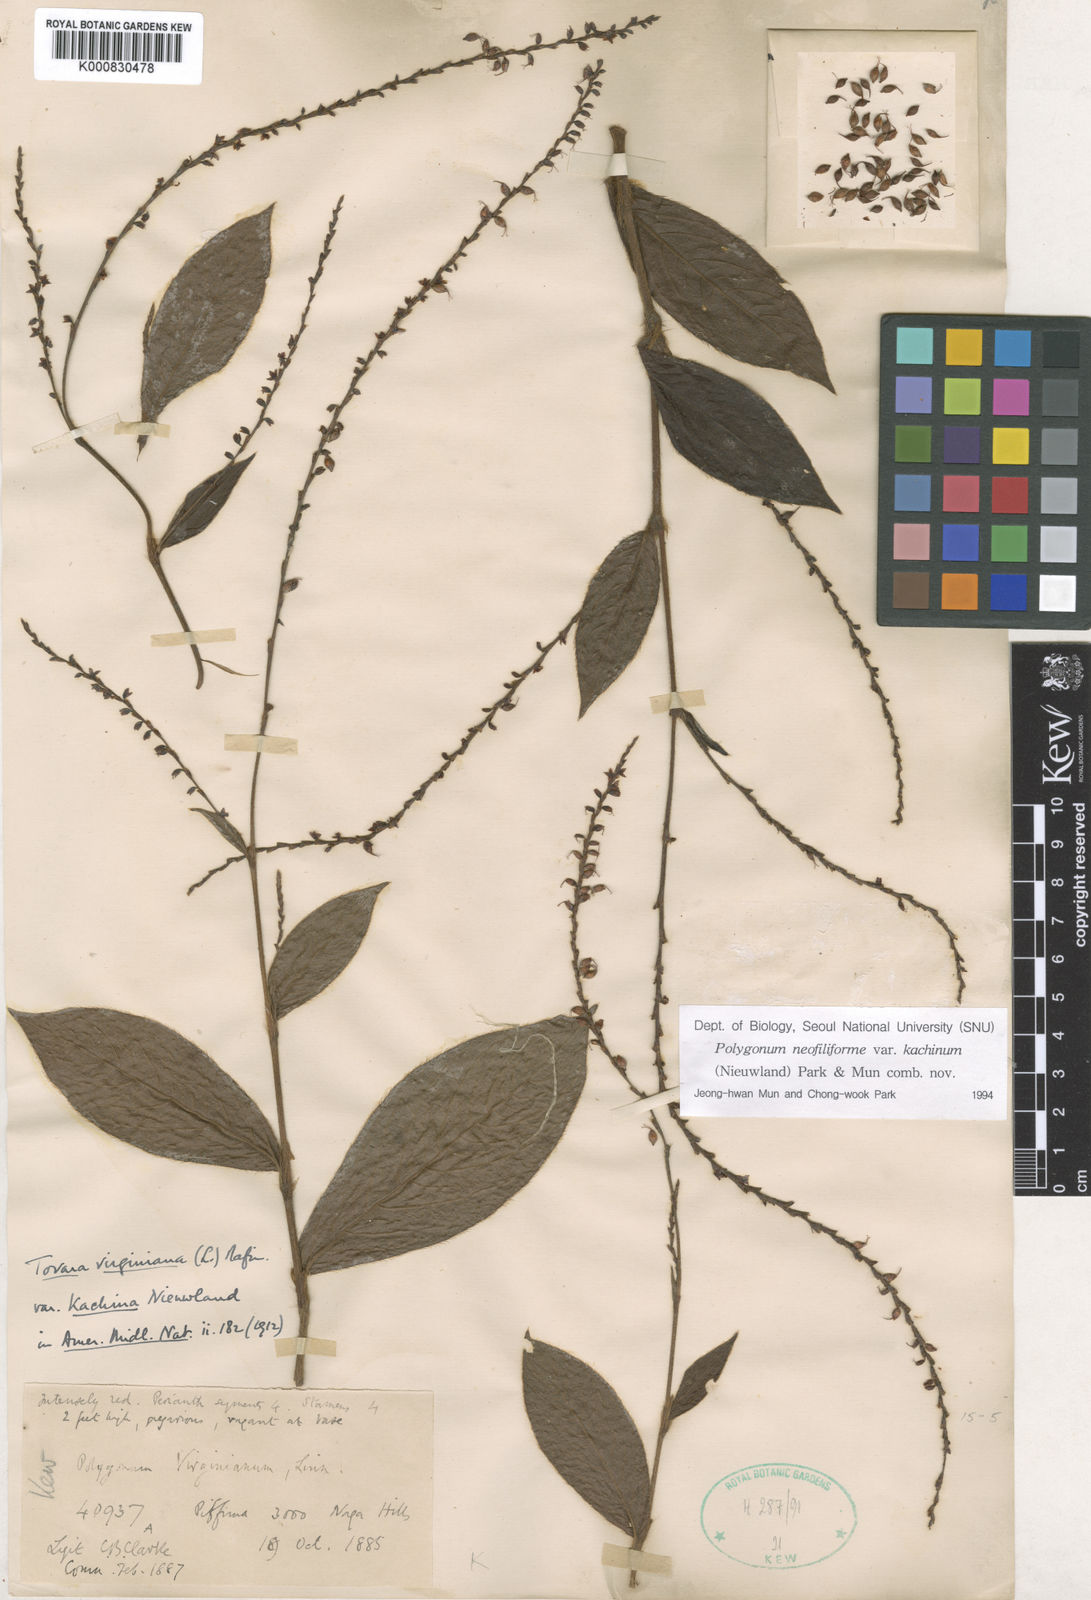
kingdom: Plantae
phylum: Tracheophyta
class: Magnoliopsida
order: Caryophyllales
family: Polygonaceae
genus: Persicaria
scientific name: Persicaria neofiliformis
